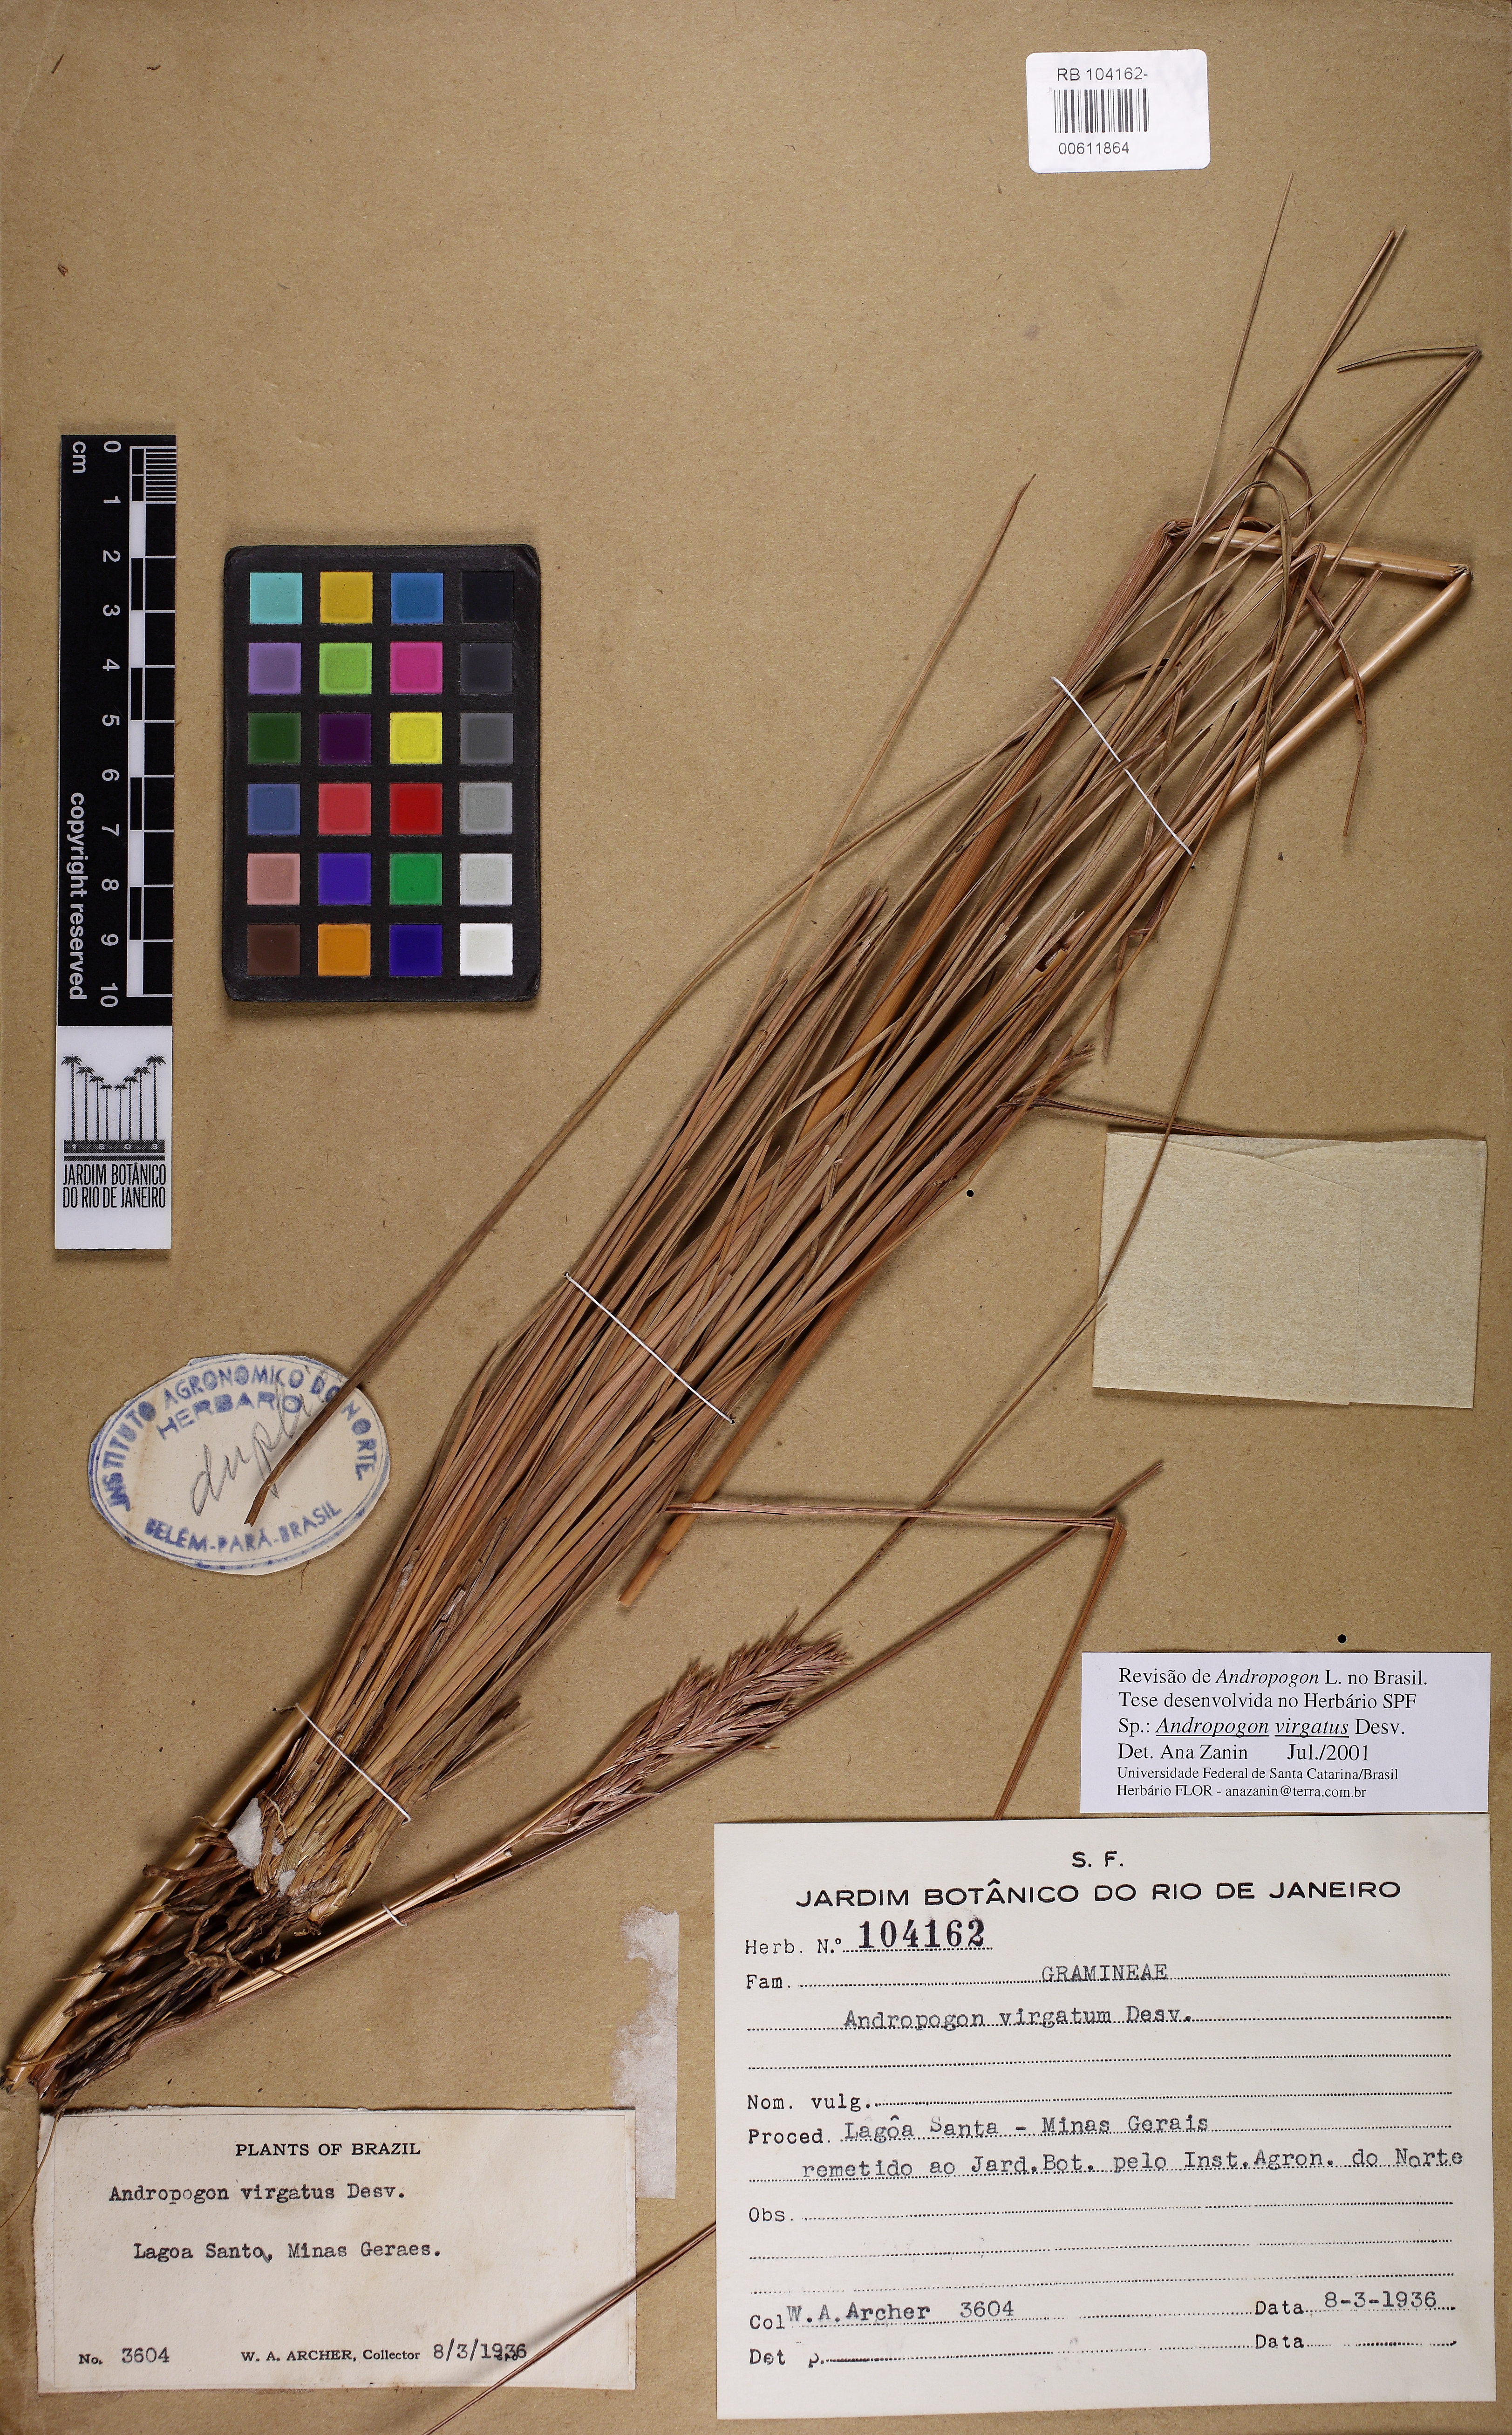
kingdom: Plantae
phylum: Tracheophyta
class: Liliopsida
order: Poales
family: Poaceae
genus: Andropogon
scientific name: Andropogon virgatus
